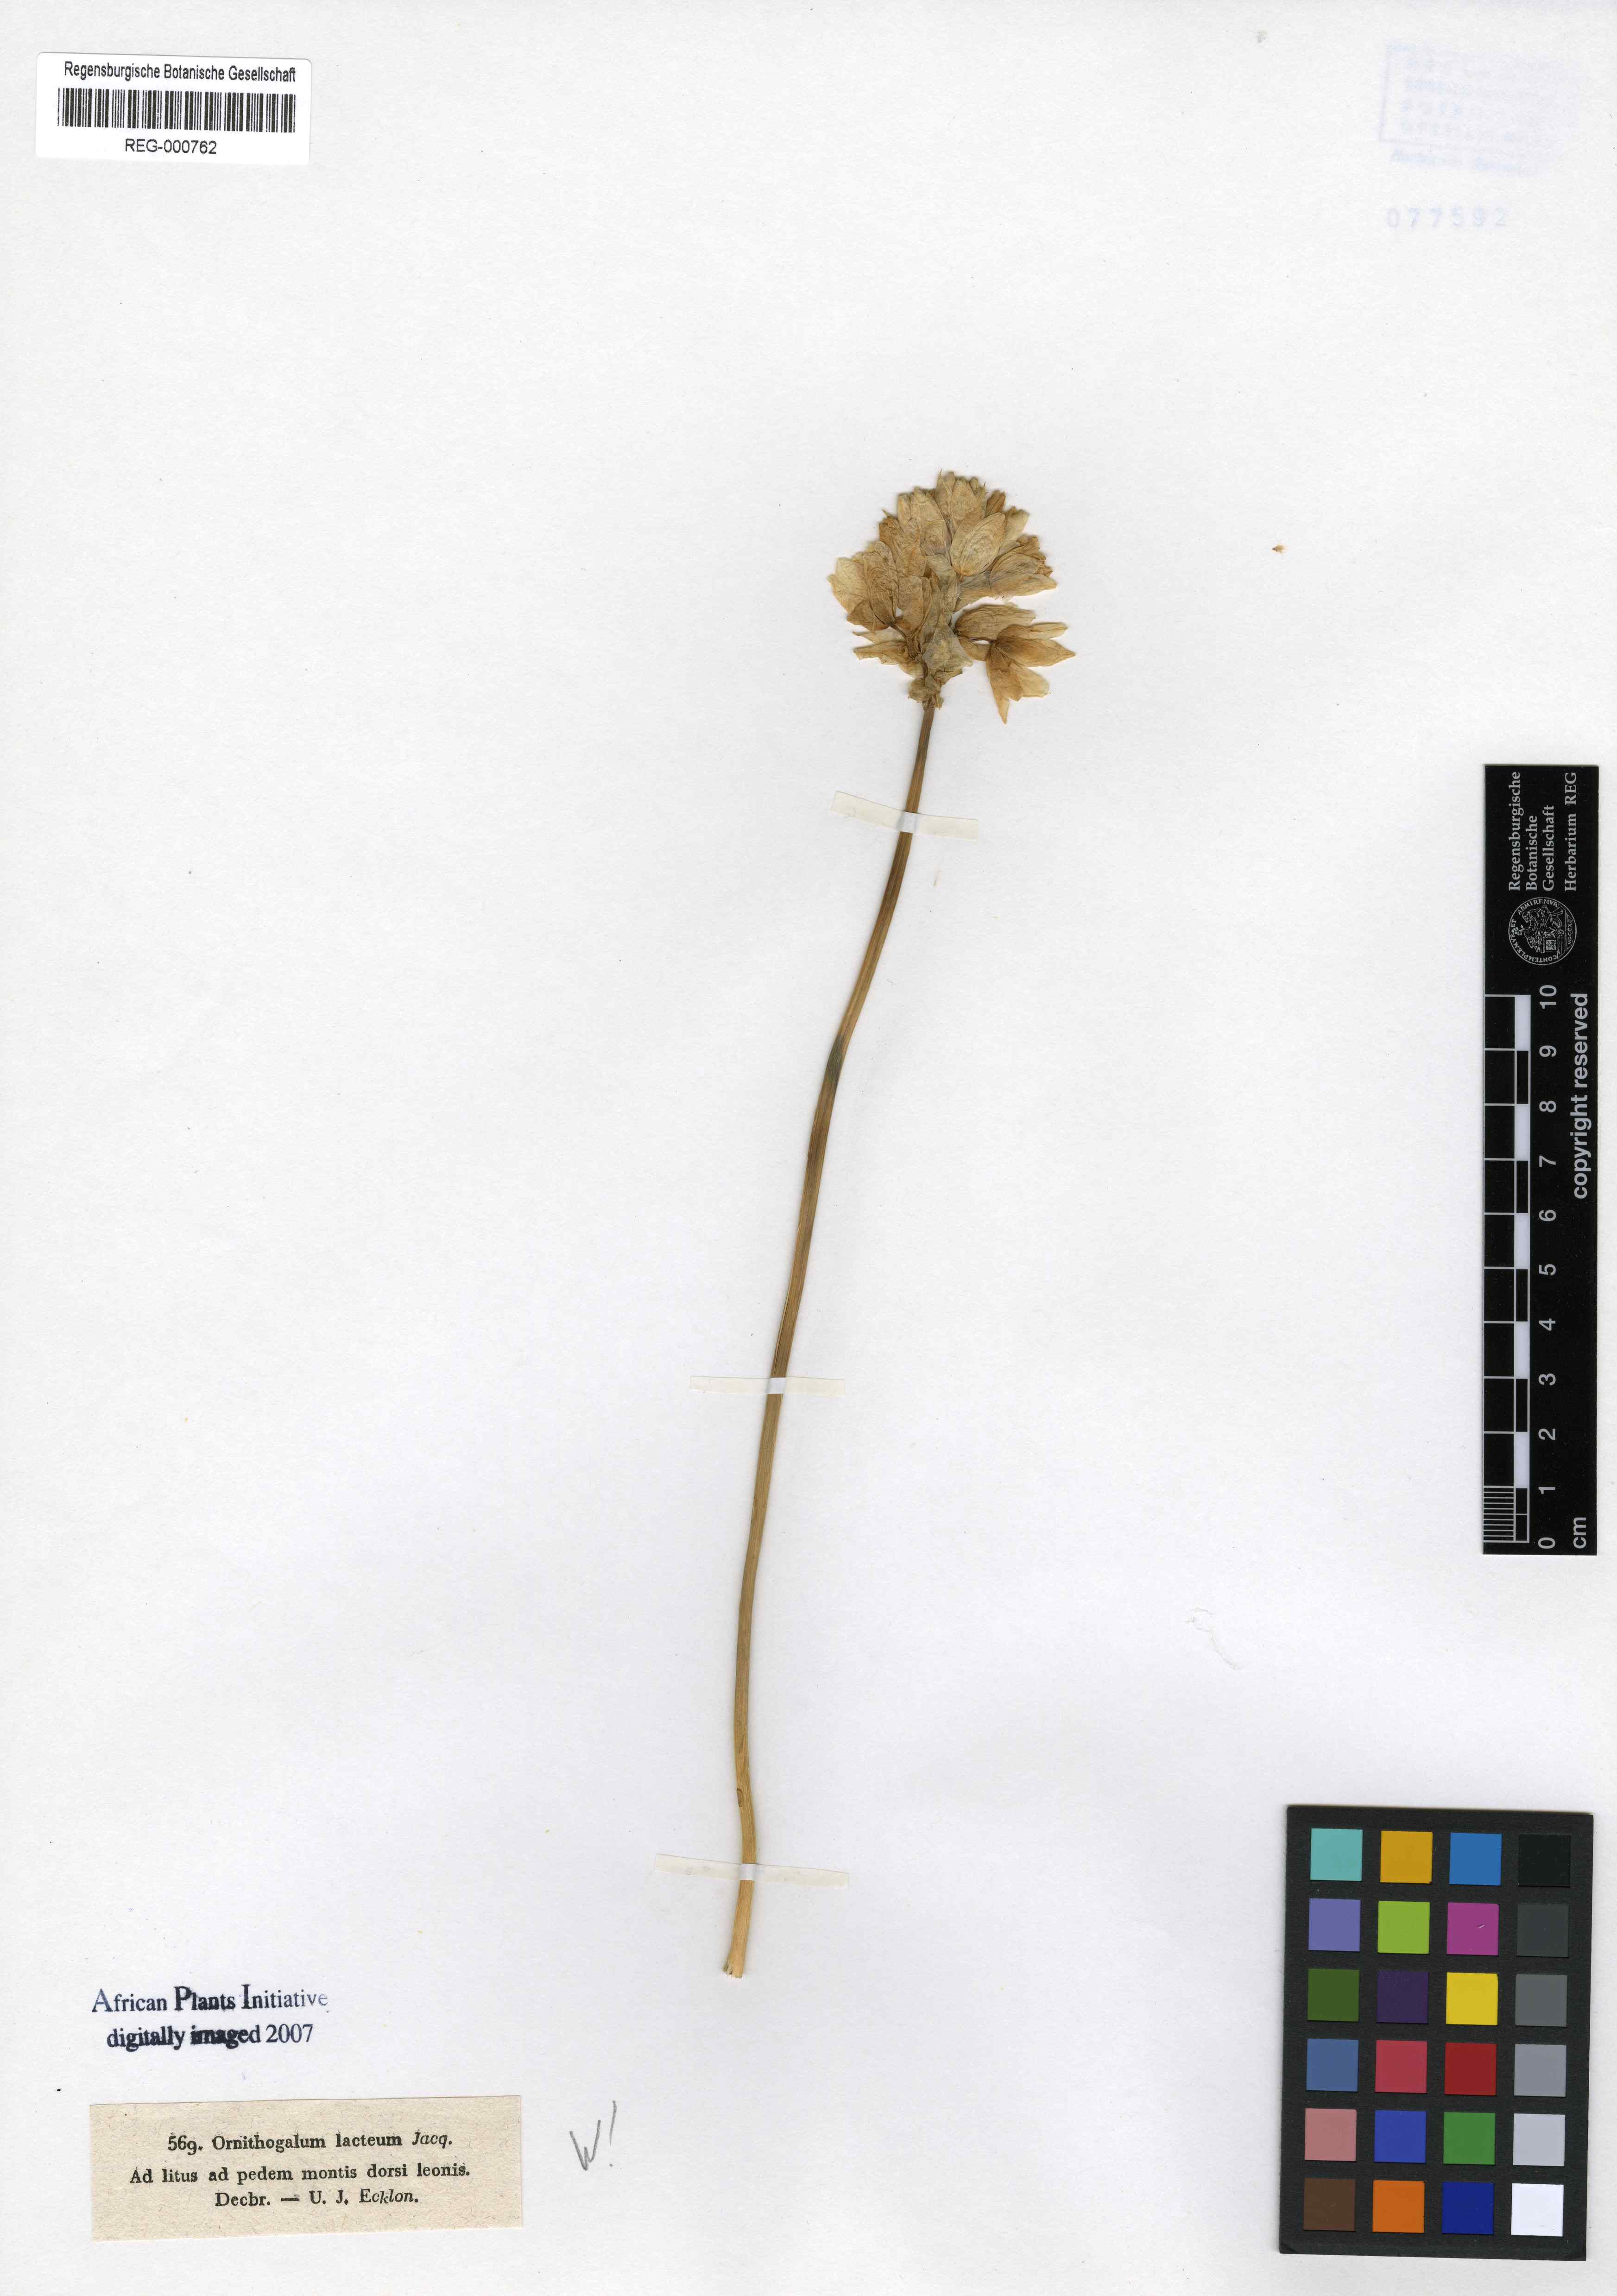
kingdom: Plantae
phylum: Tracheophyta
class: Liliopsida
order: Asparagales
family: Asparagaceae
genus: Ornithogalum
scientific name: Ornithogalum conicum
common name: Chinkerinchee
